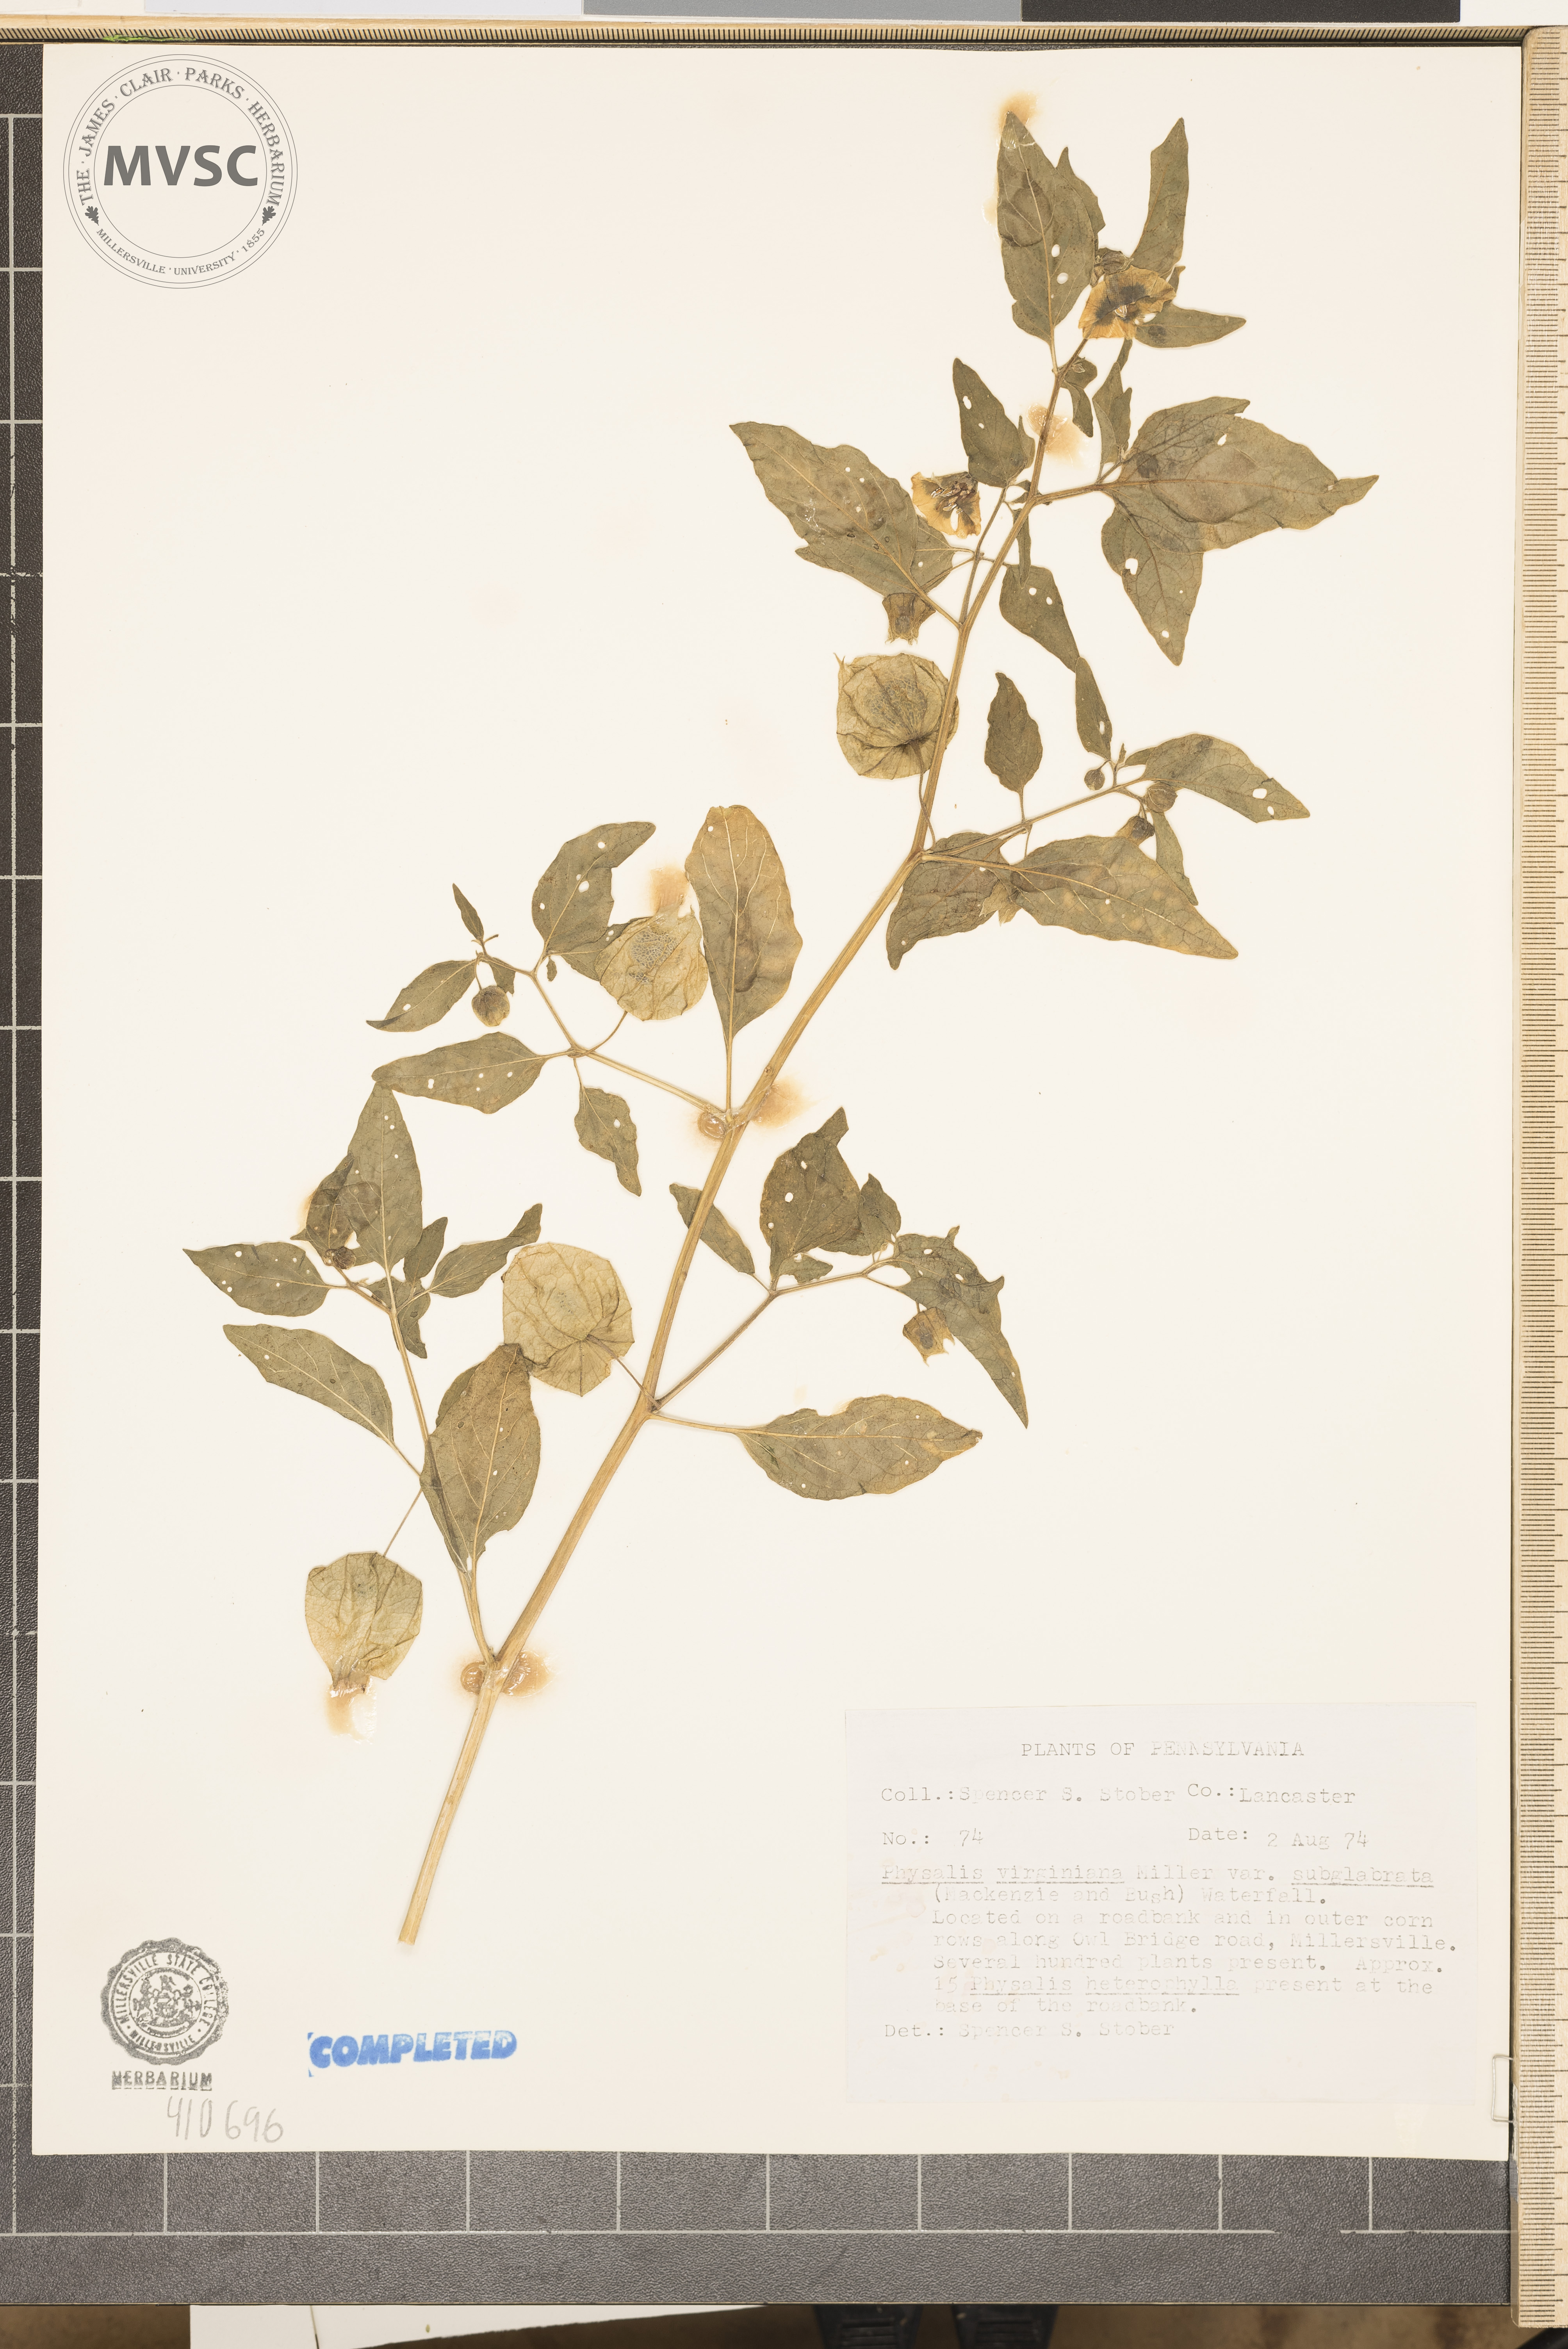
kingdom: Plantae
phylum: Tracheophyta
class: Magnoliopsida
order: Solanales
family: Solanaceae
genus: Physalis
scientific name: Physalis virginiana
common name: Virginia ground-cherry
